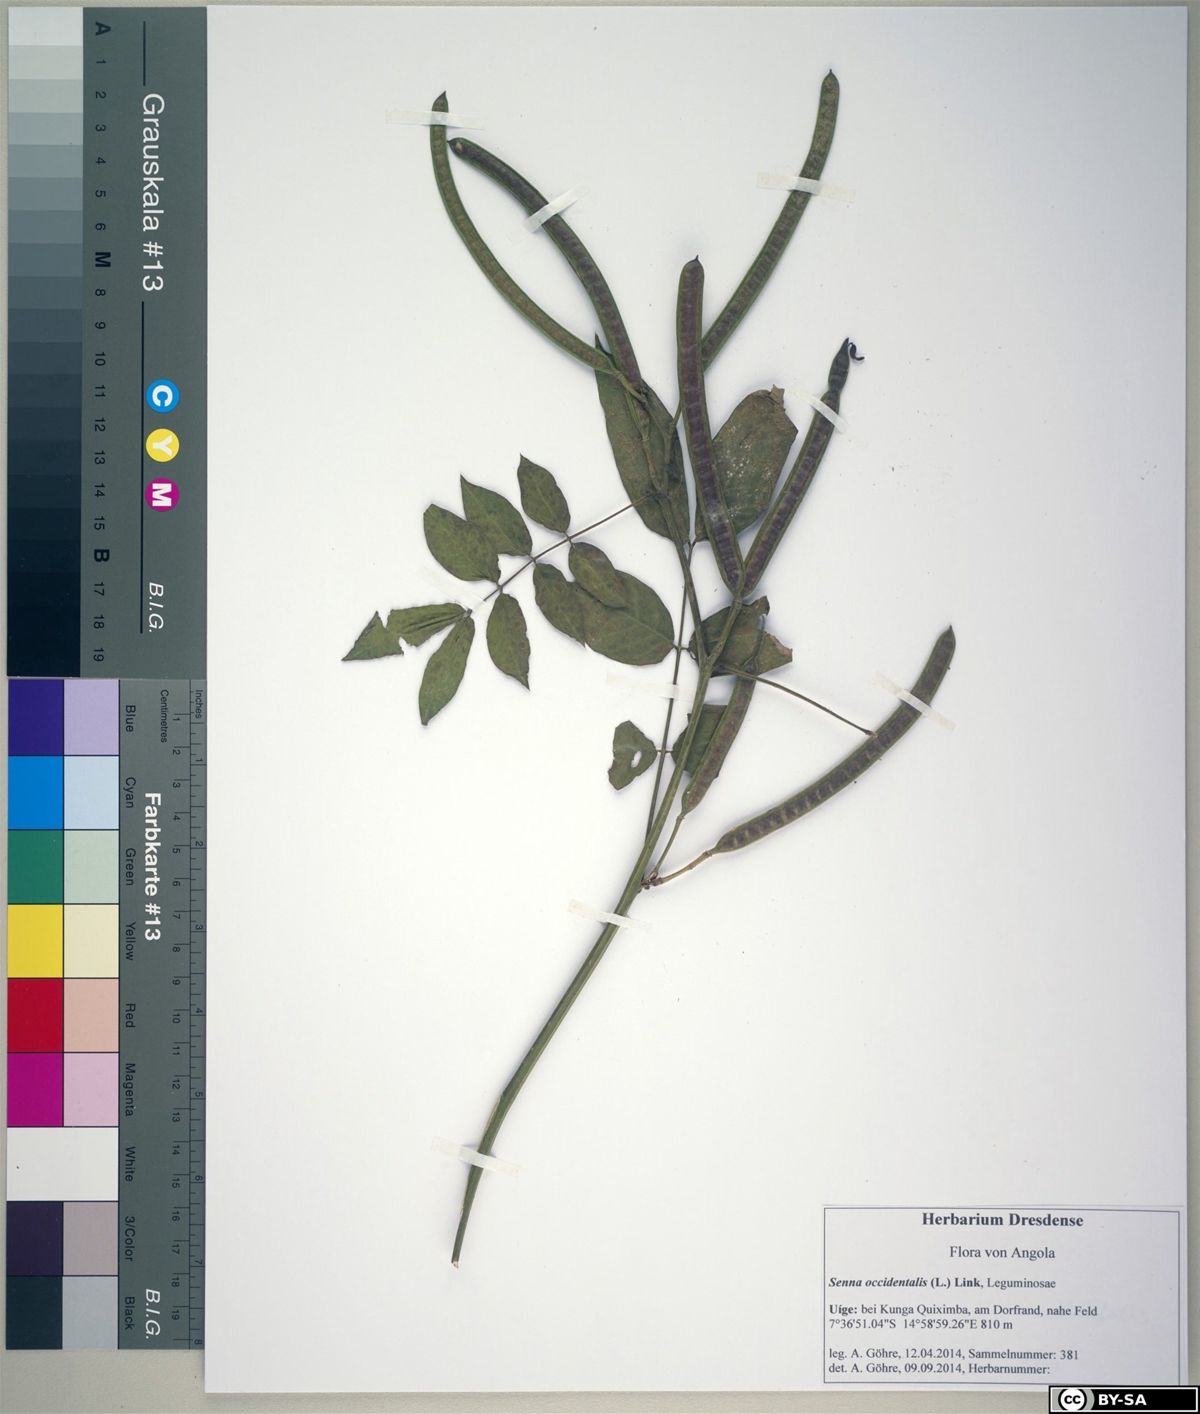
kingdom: Plantae
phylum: Tracheophyta
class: Magnoliopsida
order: Fabales
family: Fabaceae
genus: Senna
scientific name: Senna occidentalis
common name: Septicweed
